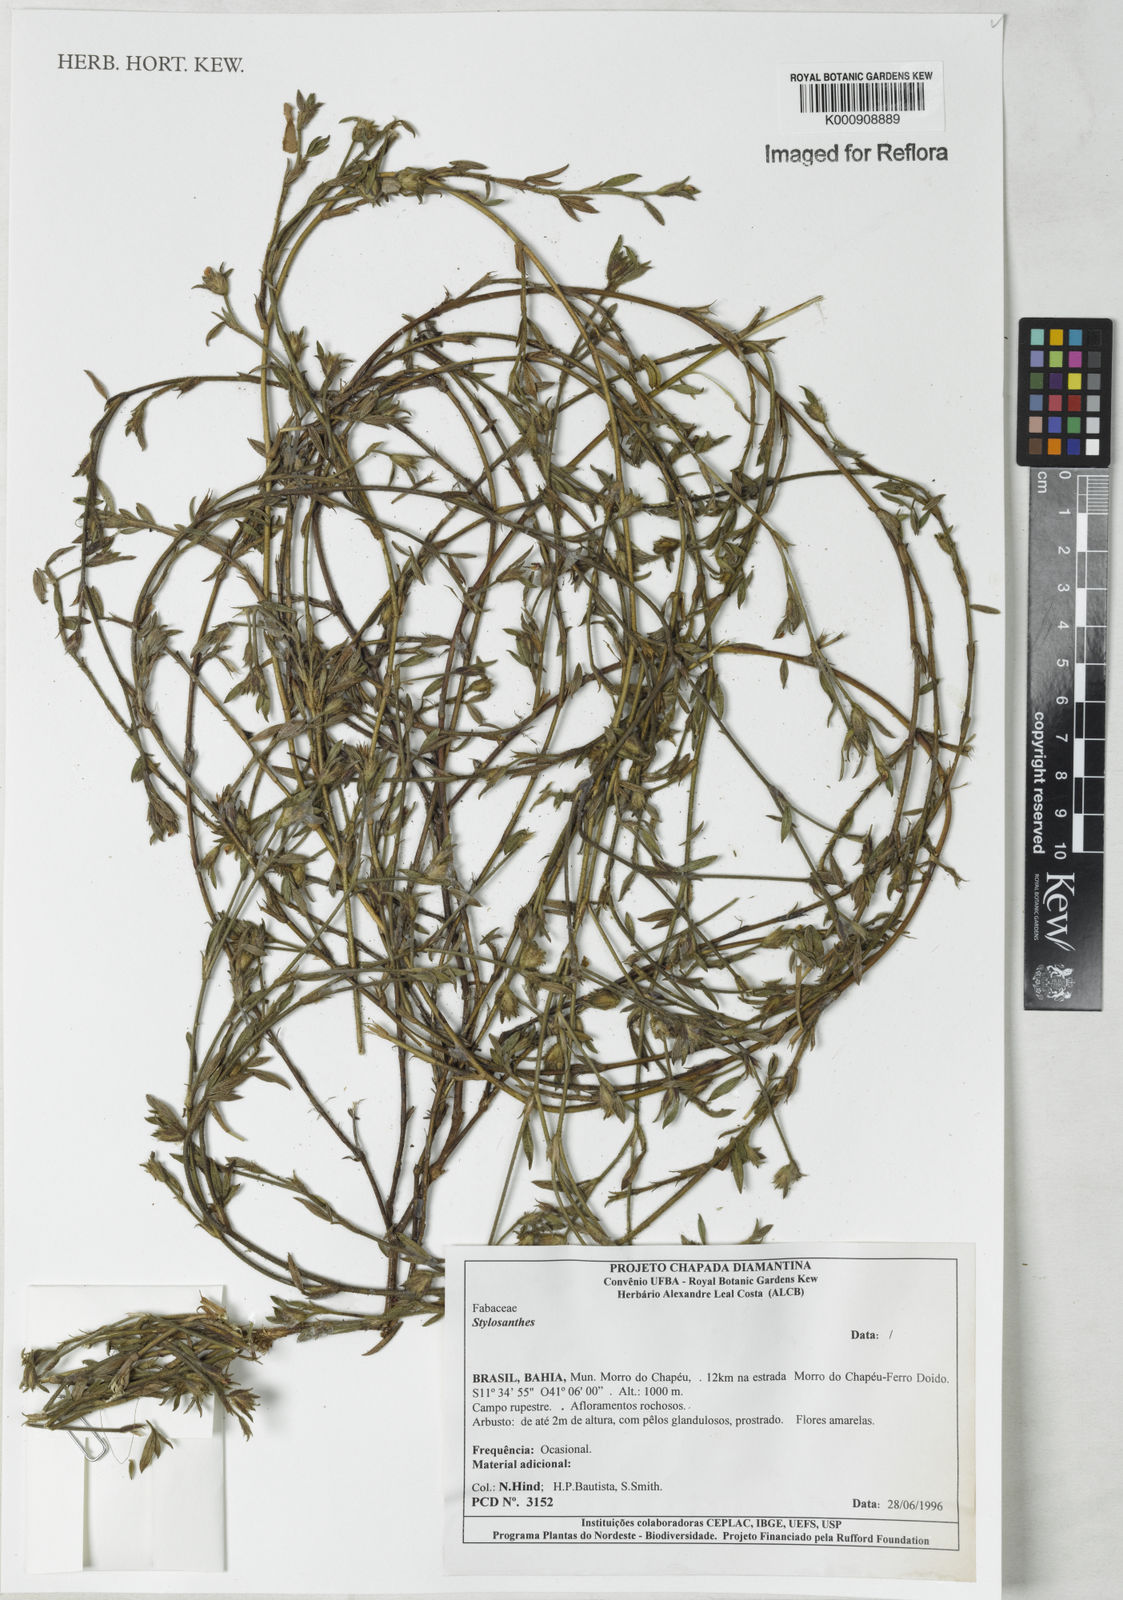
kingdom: Plantae
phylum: Tracheophyta
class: Magnoliopsida
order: Fabales
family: Fabaceae
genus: Stylosanthes
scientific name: Stylosanthes
